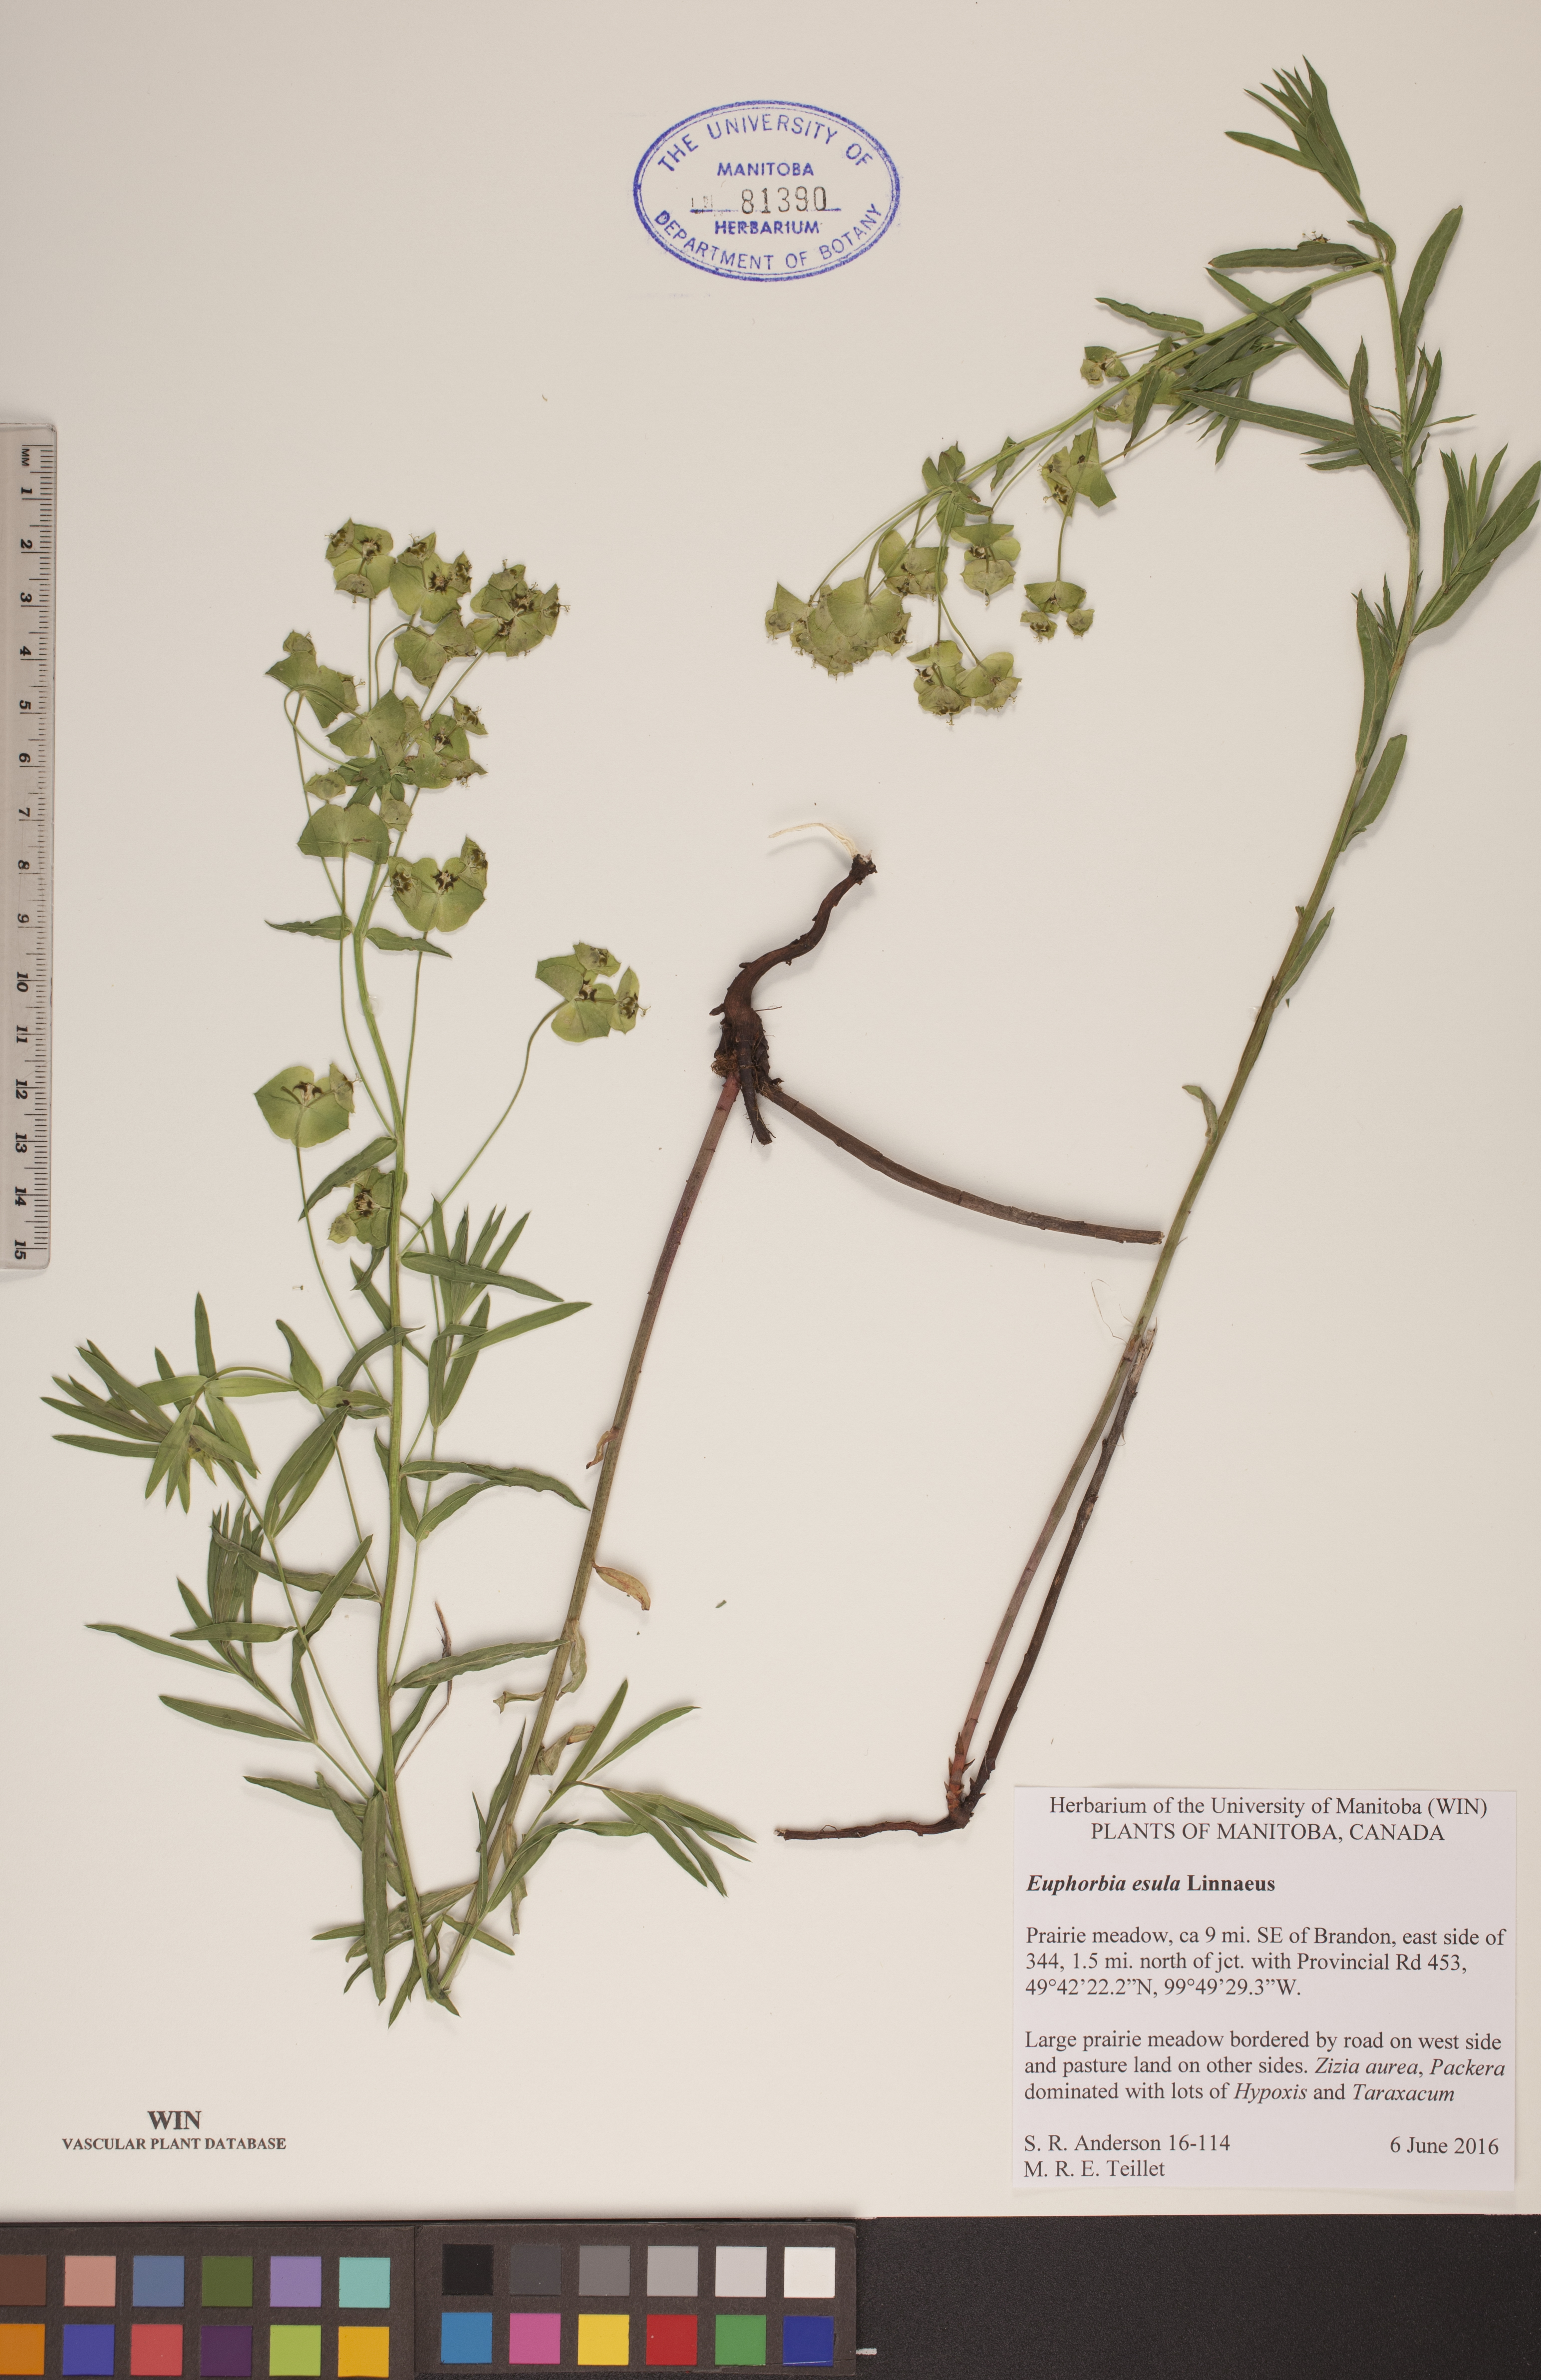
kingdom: Plantae
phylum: Tracheophyta
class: Magnoliopsida
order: Malpighiales
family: Euphorbiaceae
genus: Euphorbia
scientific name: Euphorbia esula
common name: Leafy spurge
